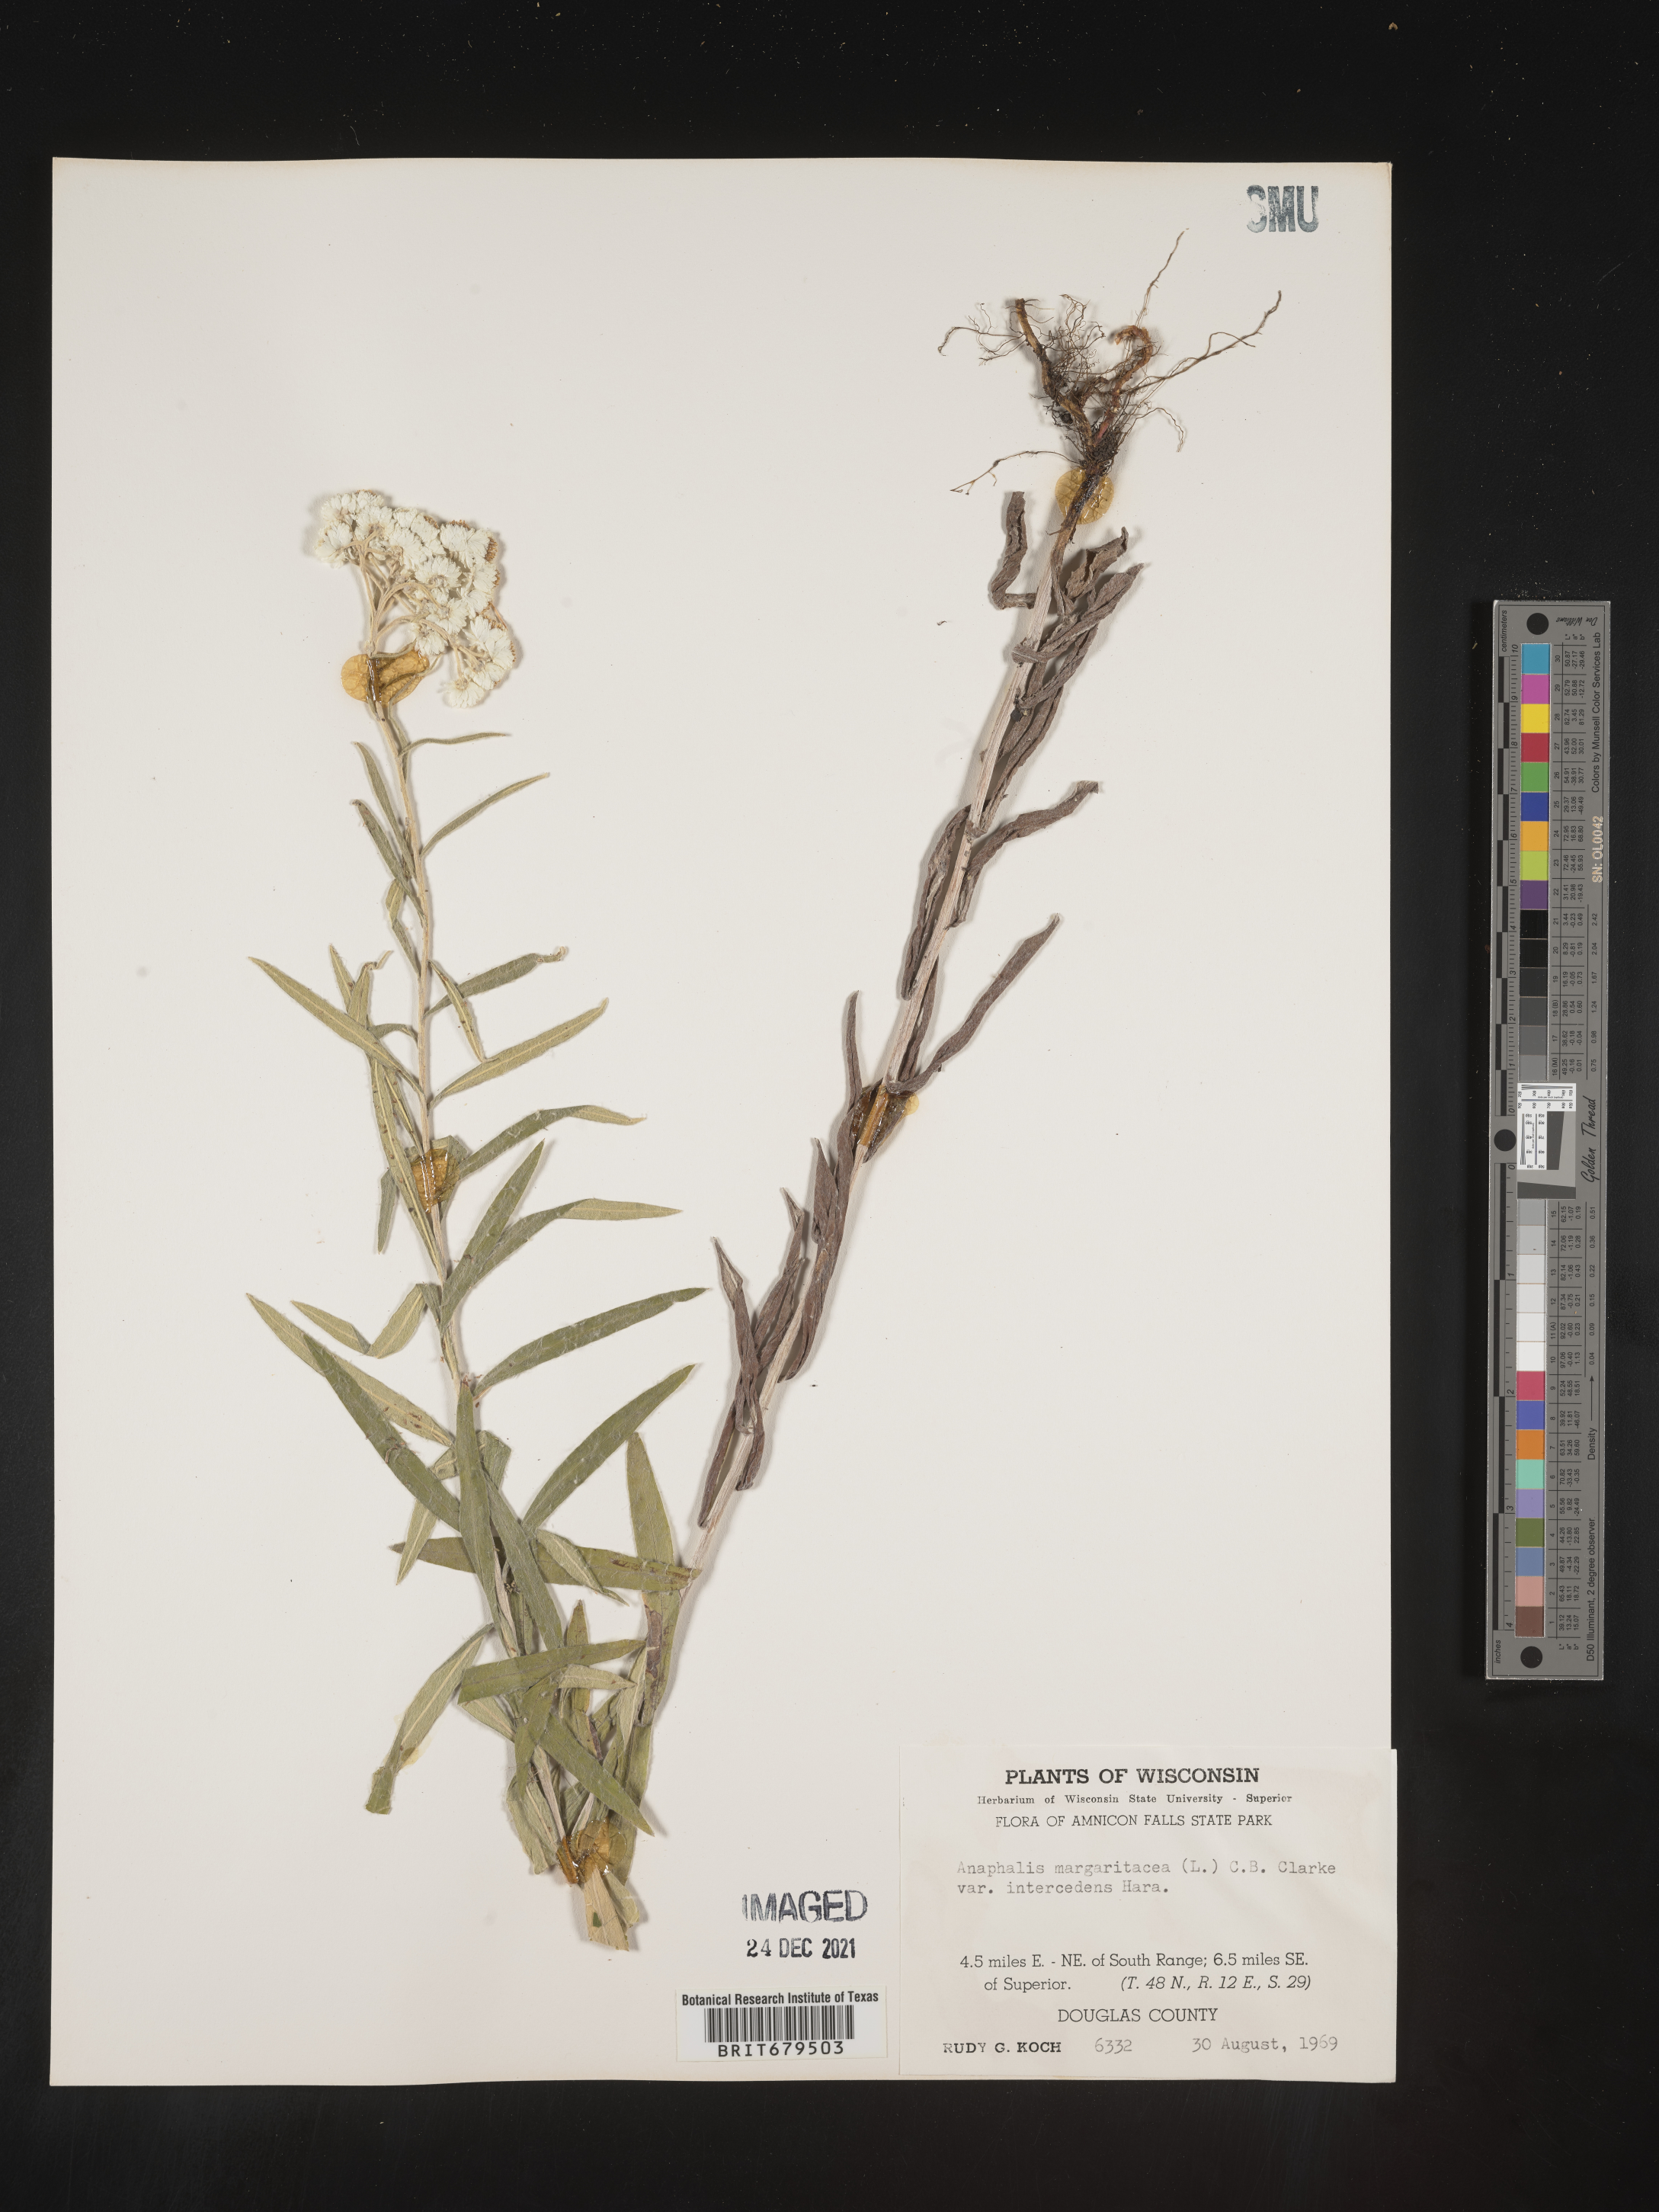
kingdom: Plantae
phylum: Tracheophyta
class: Magnoliopsida
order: Asterales
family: Asteraceae
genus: Anaphalis
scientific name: Anaphalis margaritacea
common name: Pearly everlasting
